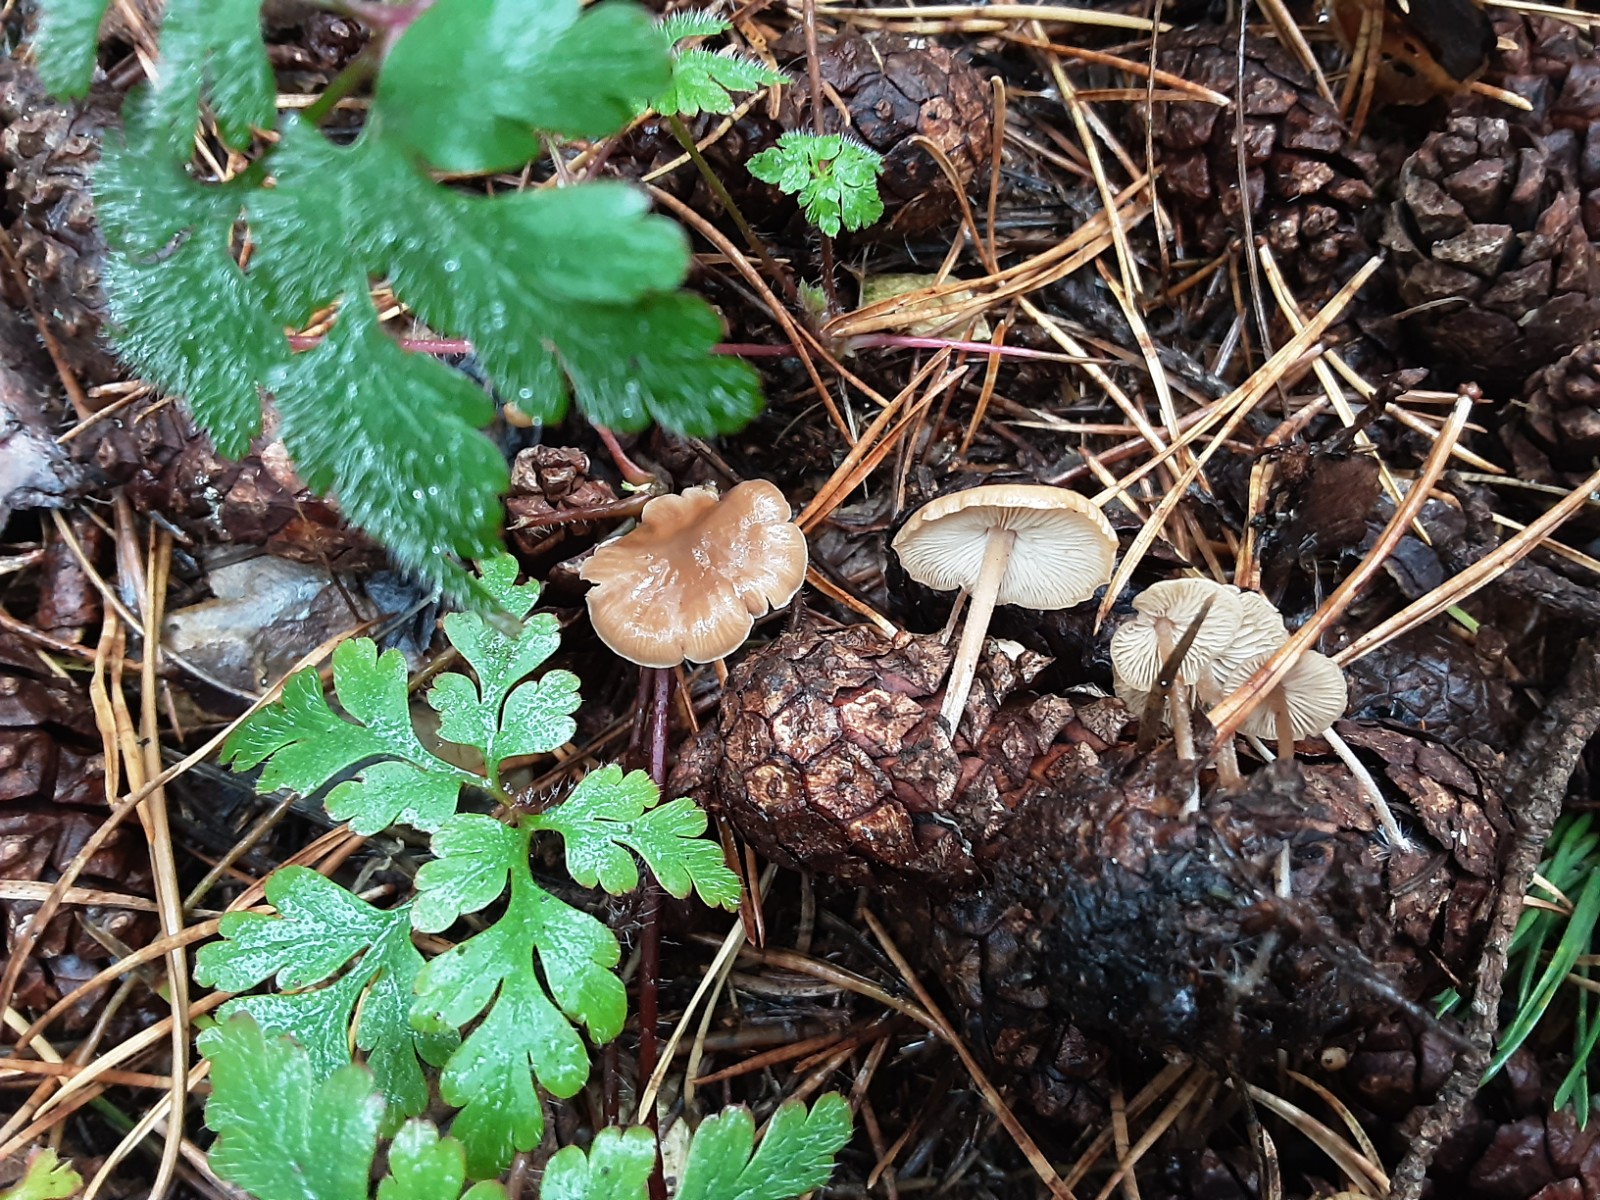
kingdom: Fungi
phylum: Basidiomycota
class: Agaricomycetes
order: Agaricales
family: Marasmiaceae
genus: Baeospora
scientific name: Baeospora myosura
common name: koglebruskhat
